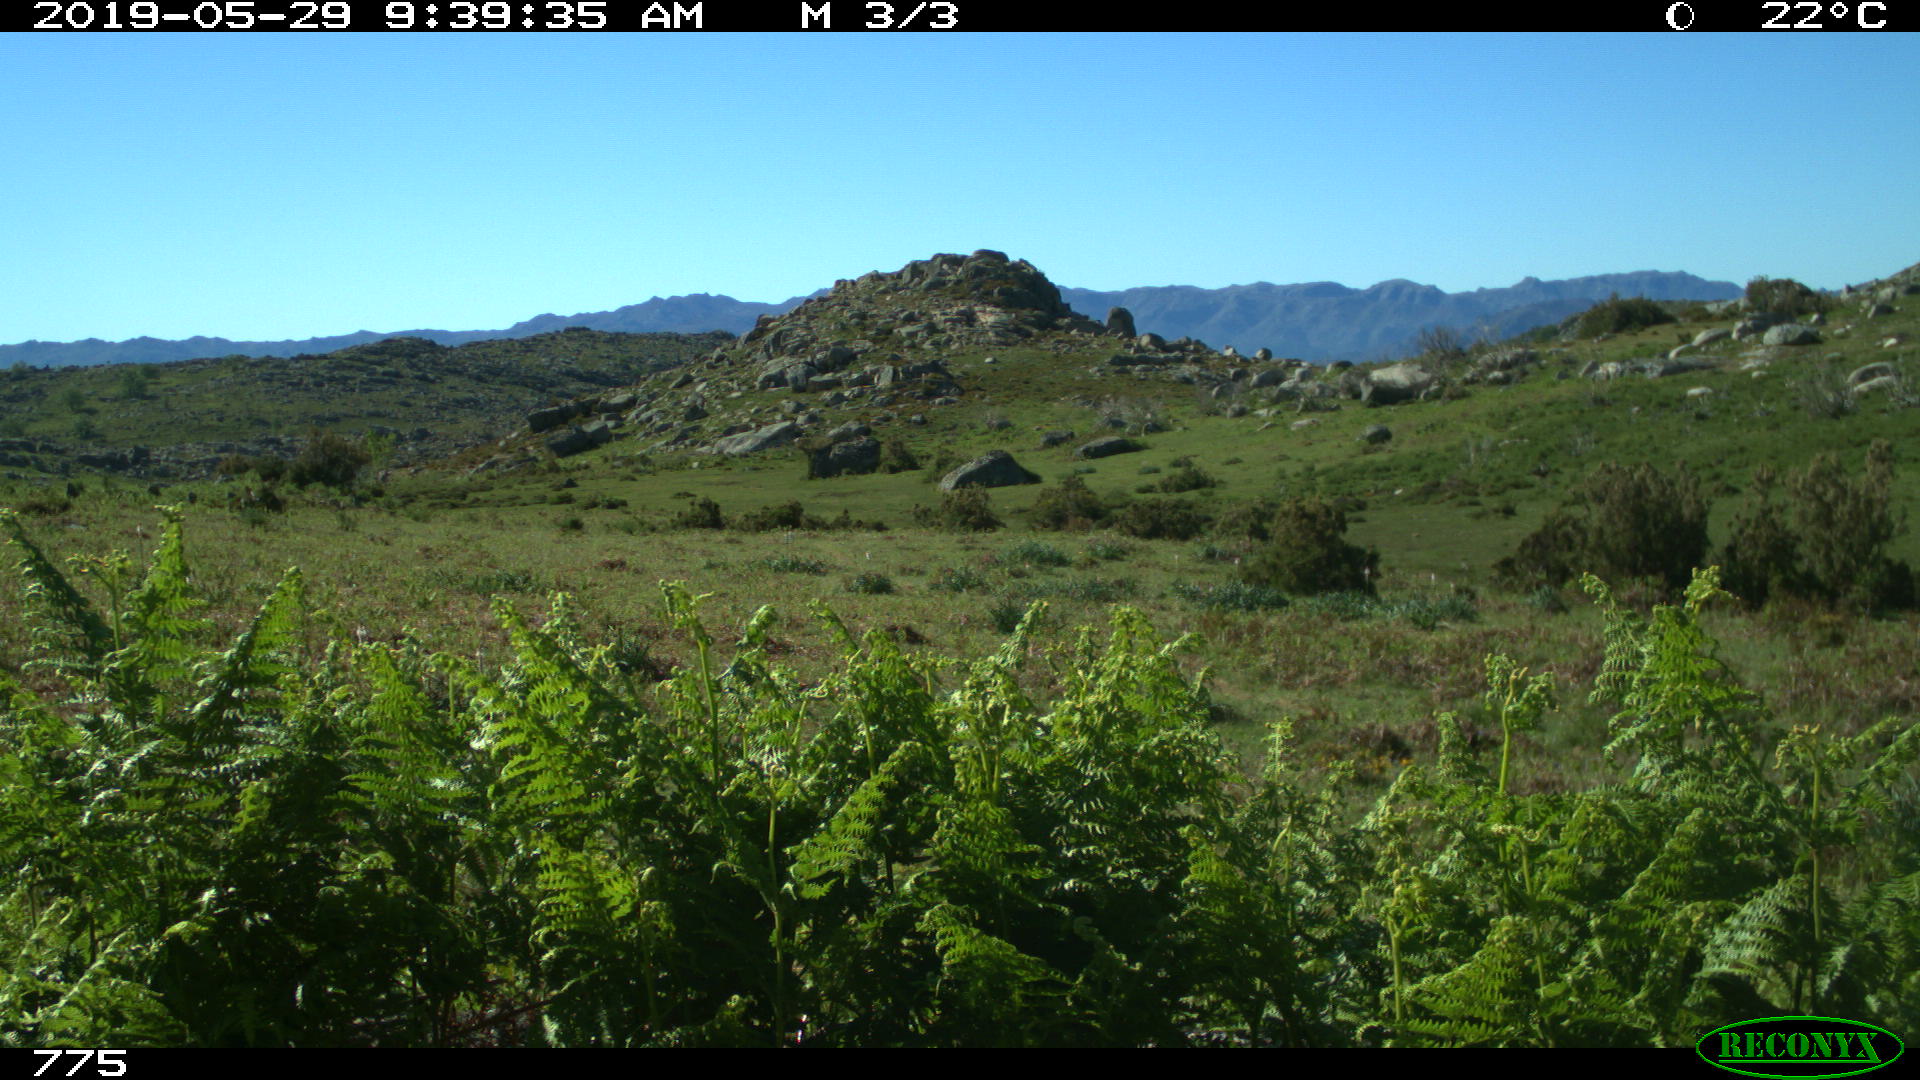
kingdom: Animalia
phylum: Chordata
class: Mammalia
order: Perissodactyla
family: Equidae
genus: Equus
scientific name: Equus caballus
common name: Horse
